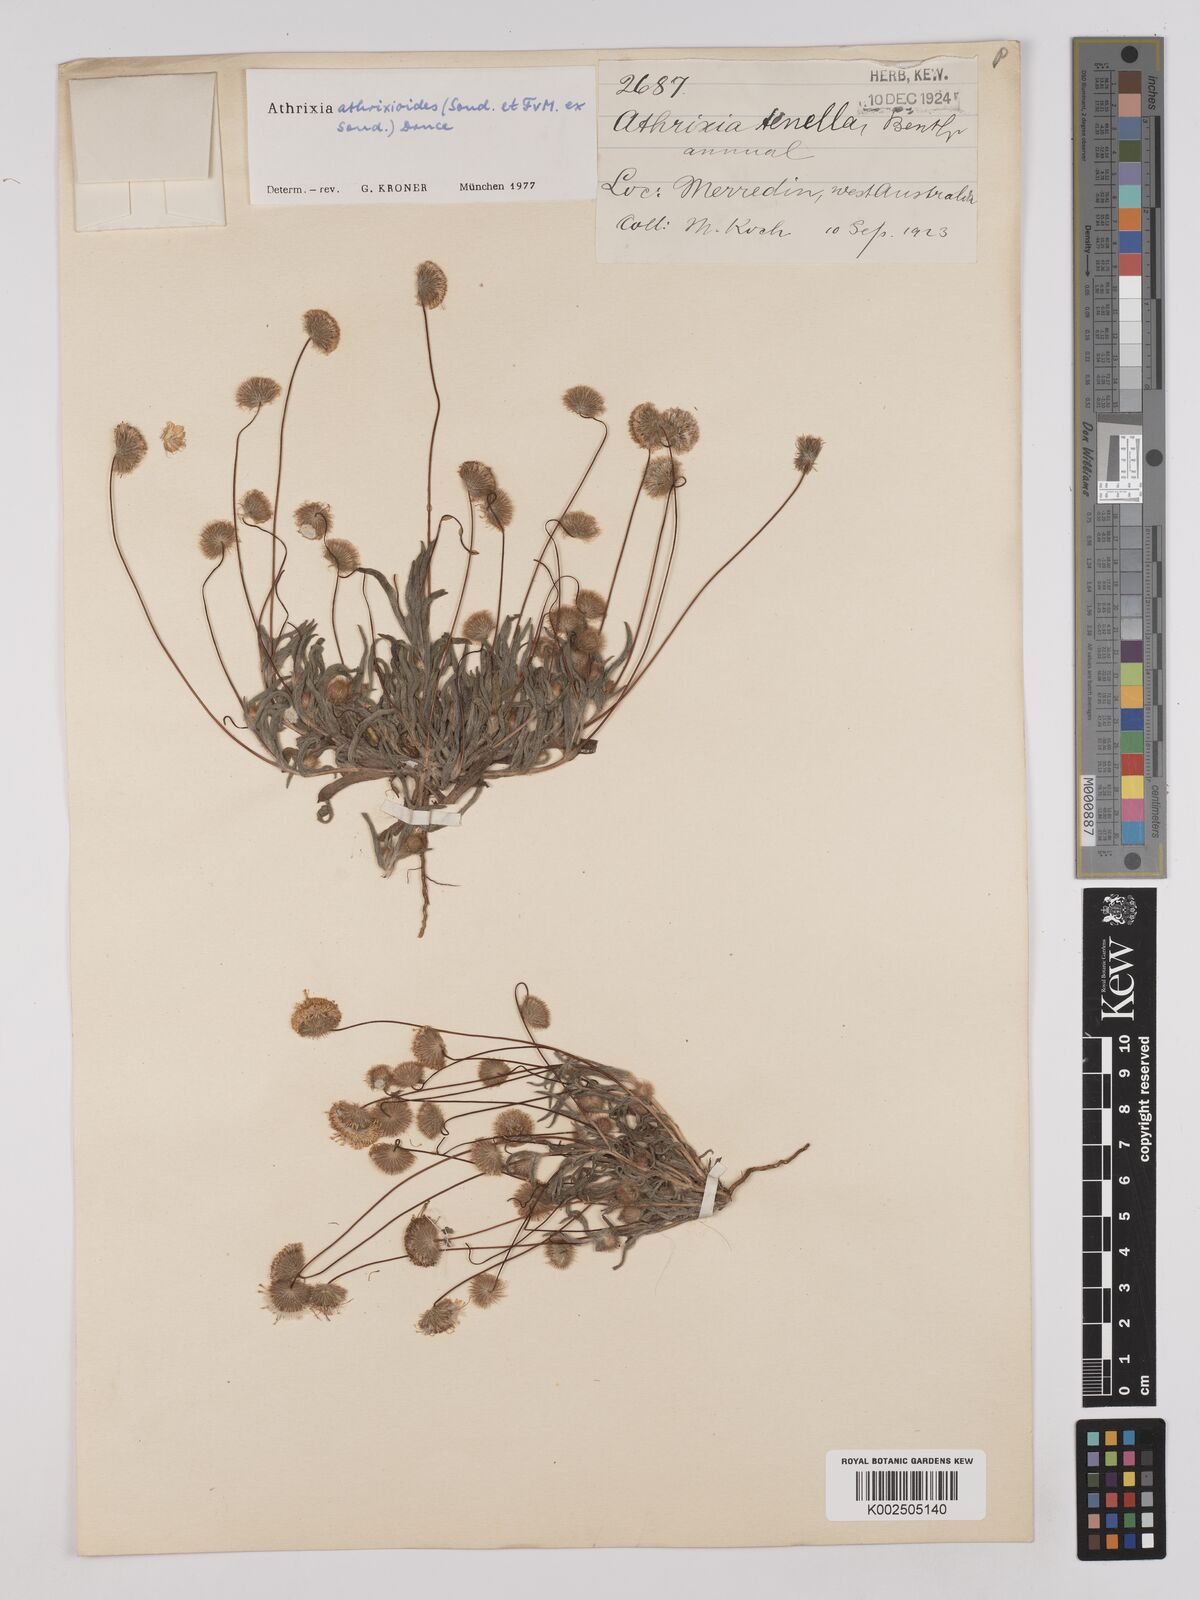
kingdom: Plantae
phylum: Tracheophyta
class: Magnoliopsida
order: Asterales
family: Asteraceae
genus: Asteridea
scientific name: Asteridea athrixioides
